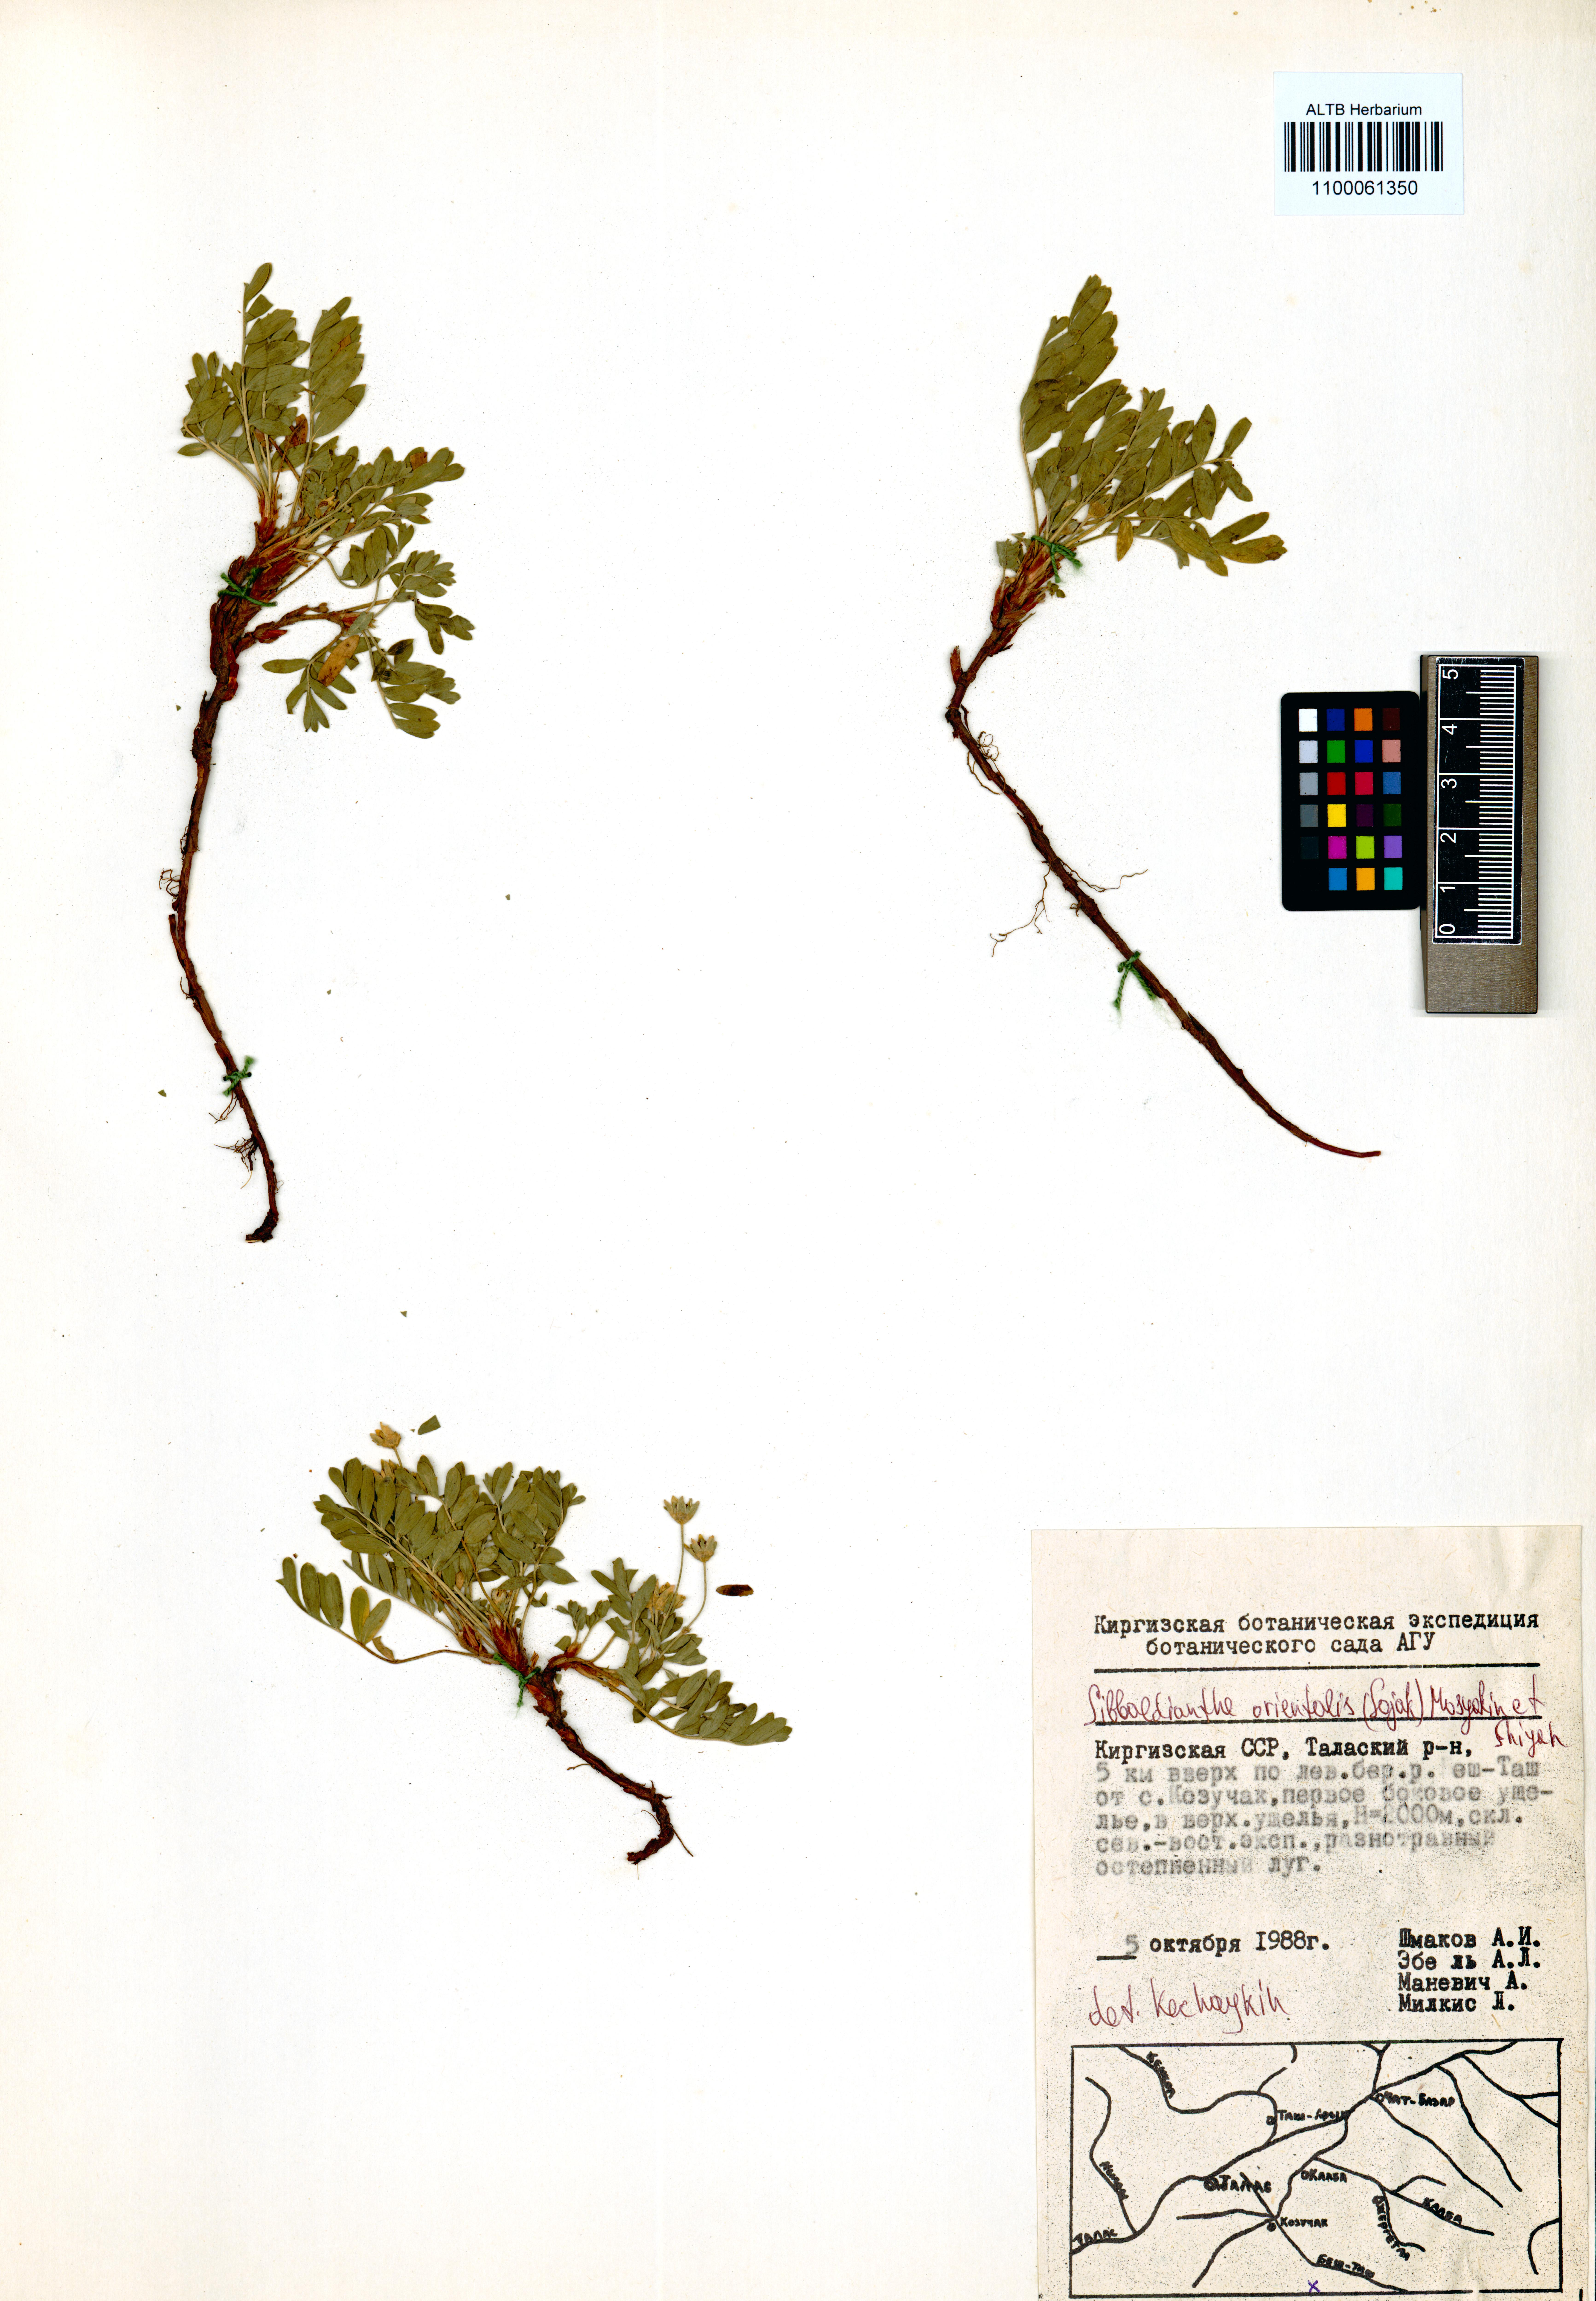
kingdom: Plantae
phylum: Tracheophyta
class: Magnoliopsida
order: Rosales
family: Rosaceae
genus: Sibbaldianthe
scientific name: Sibbaldianthe orientalis
